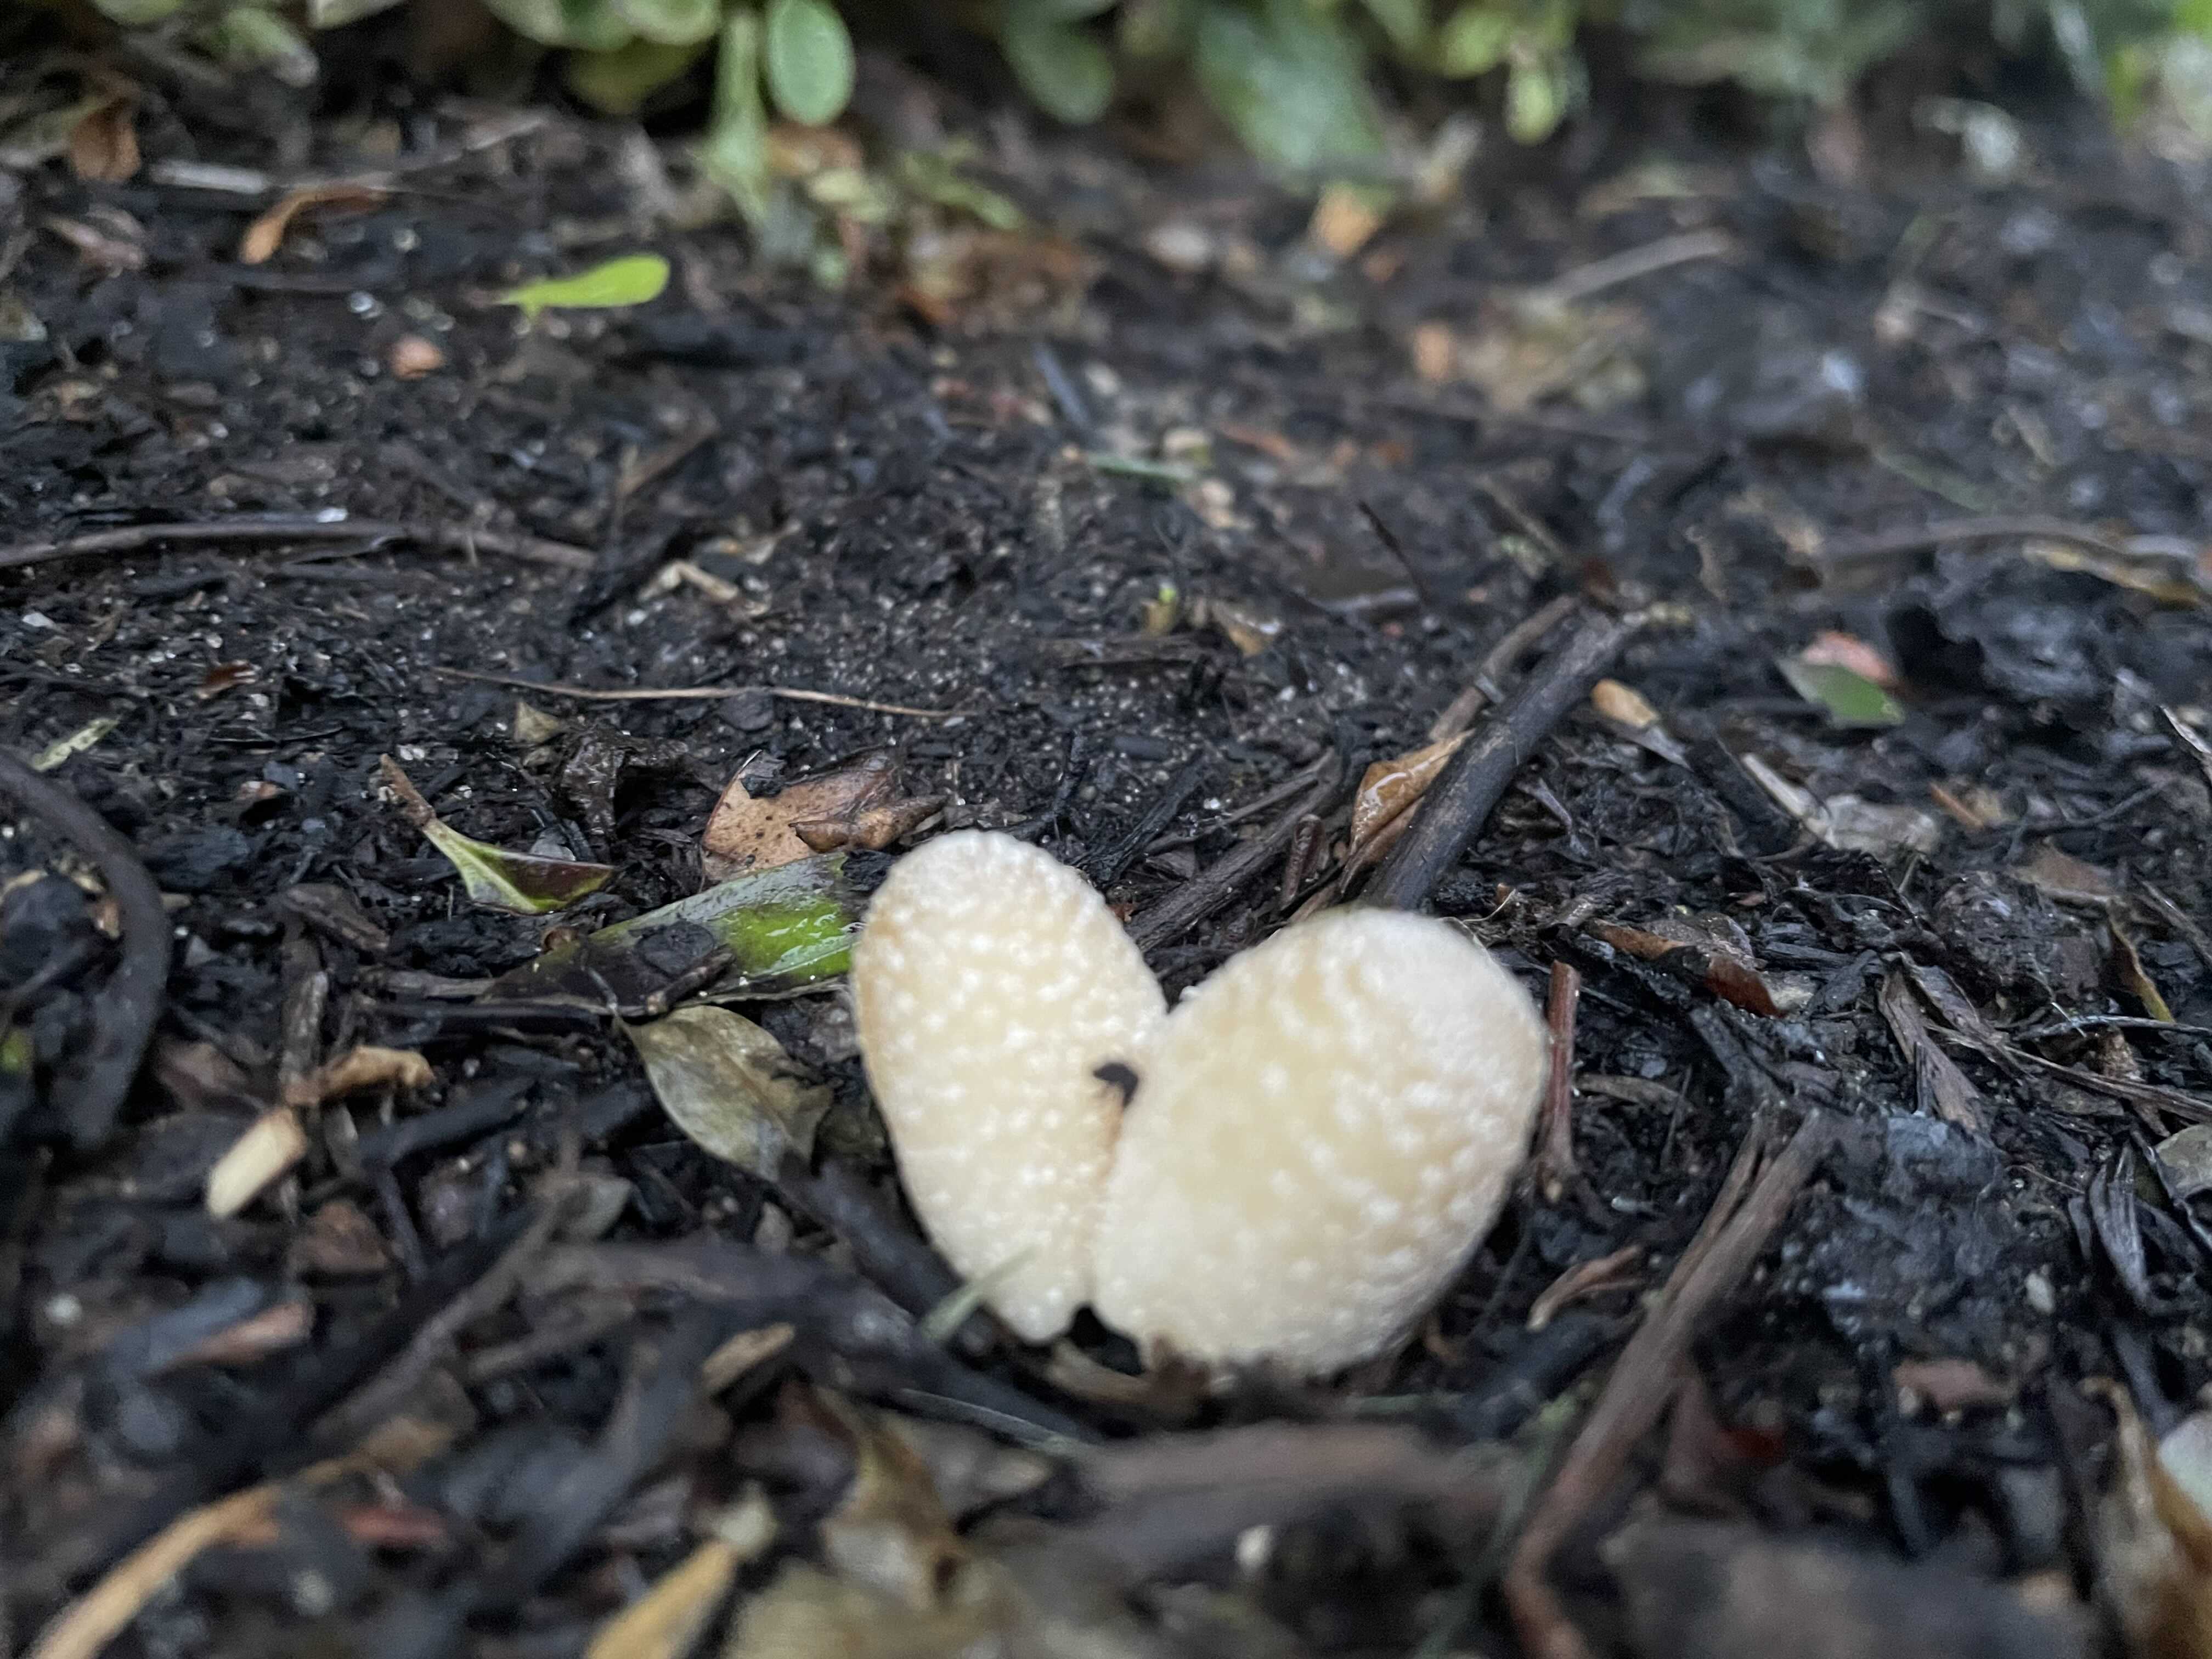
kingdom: Fungi
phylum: Basidiomycota
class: Agaricomycetes
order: Agaricales
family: Psathyrellaceae
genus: Coprinellus
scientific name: Coprinellus
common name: blækhat
